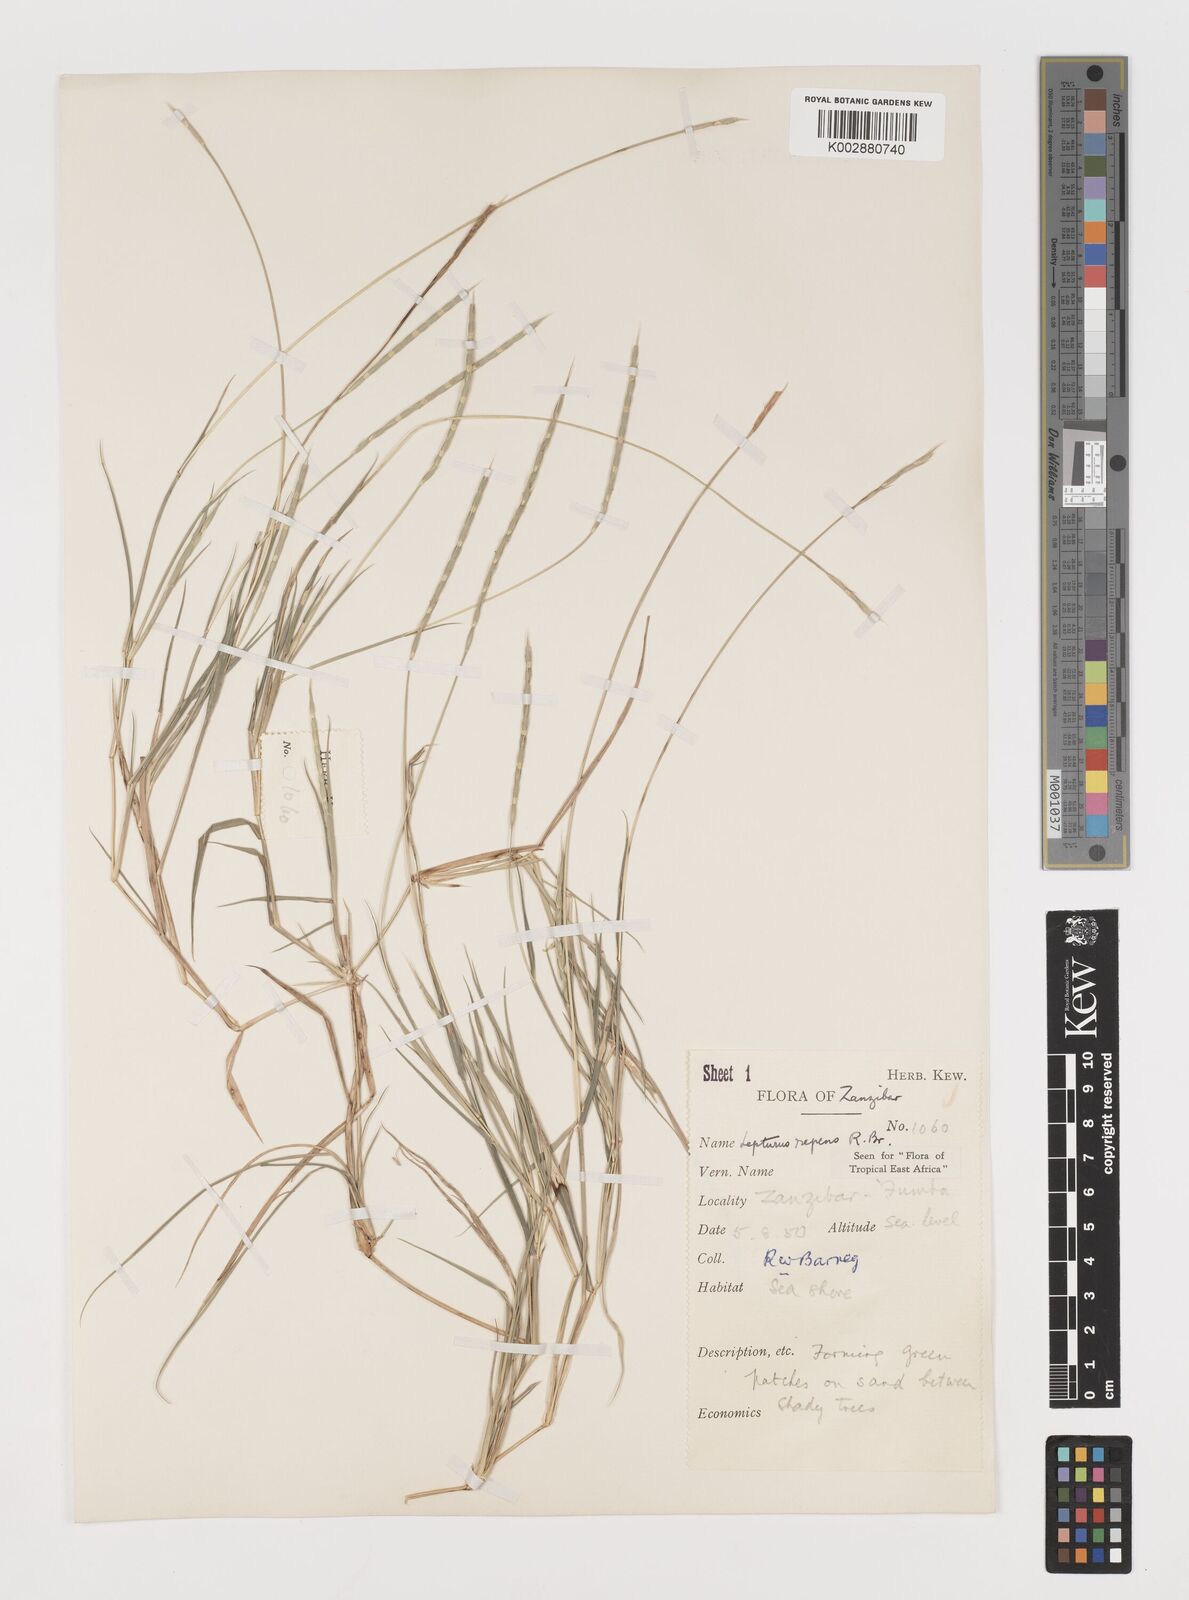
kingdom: Plantae
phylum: Tracheophyta
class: Liliopsida
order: Poales
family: Poaceae
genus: Lepturus
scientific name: Lepturus repens
